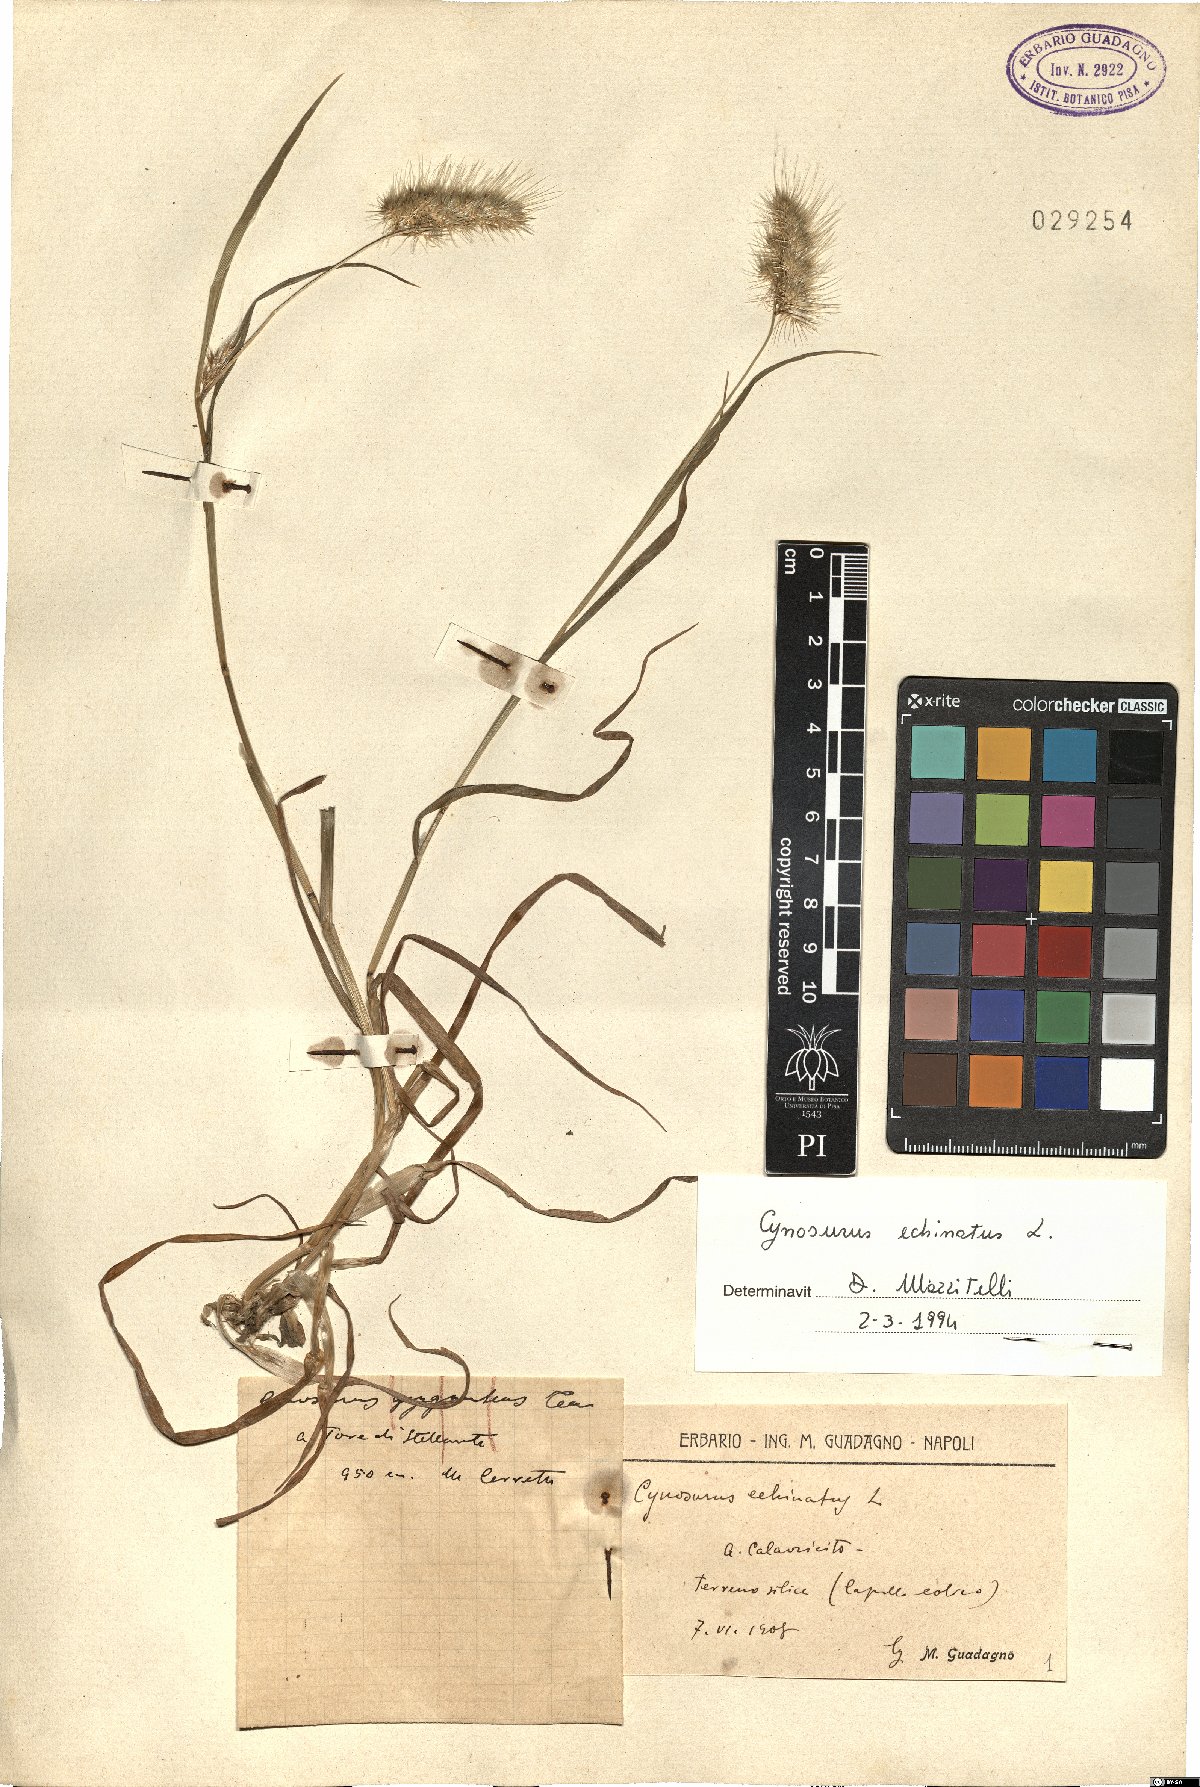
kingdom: Plantae
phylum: Tracheophyta
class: Liliopsida
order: Poales
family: Poaceae
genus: Cynosurus
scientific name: Cynosurus echinatus
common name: Rough dog's-tail
